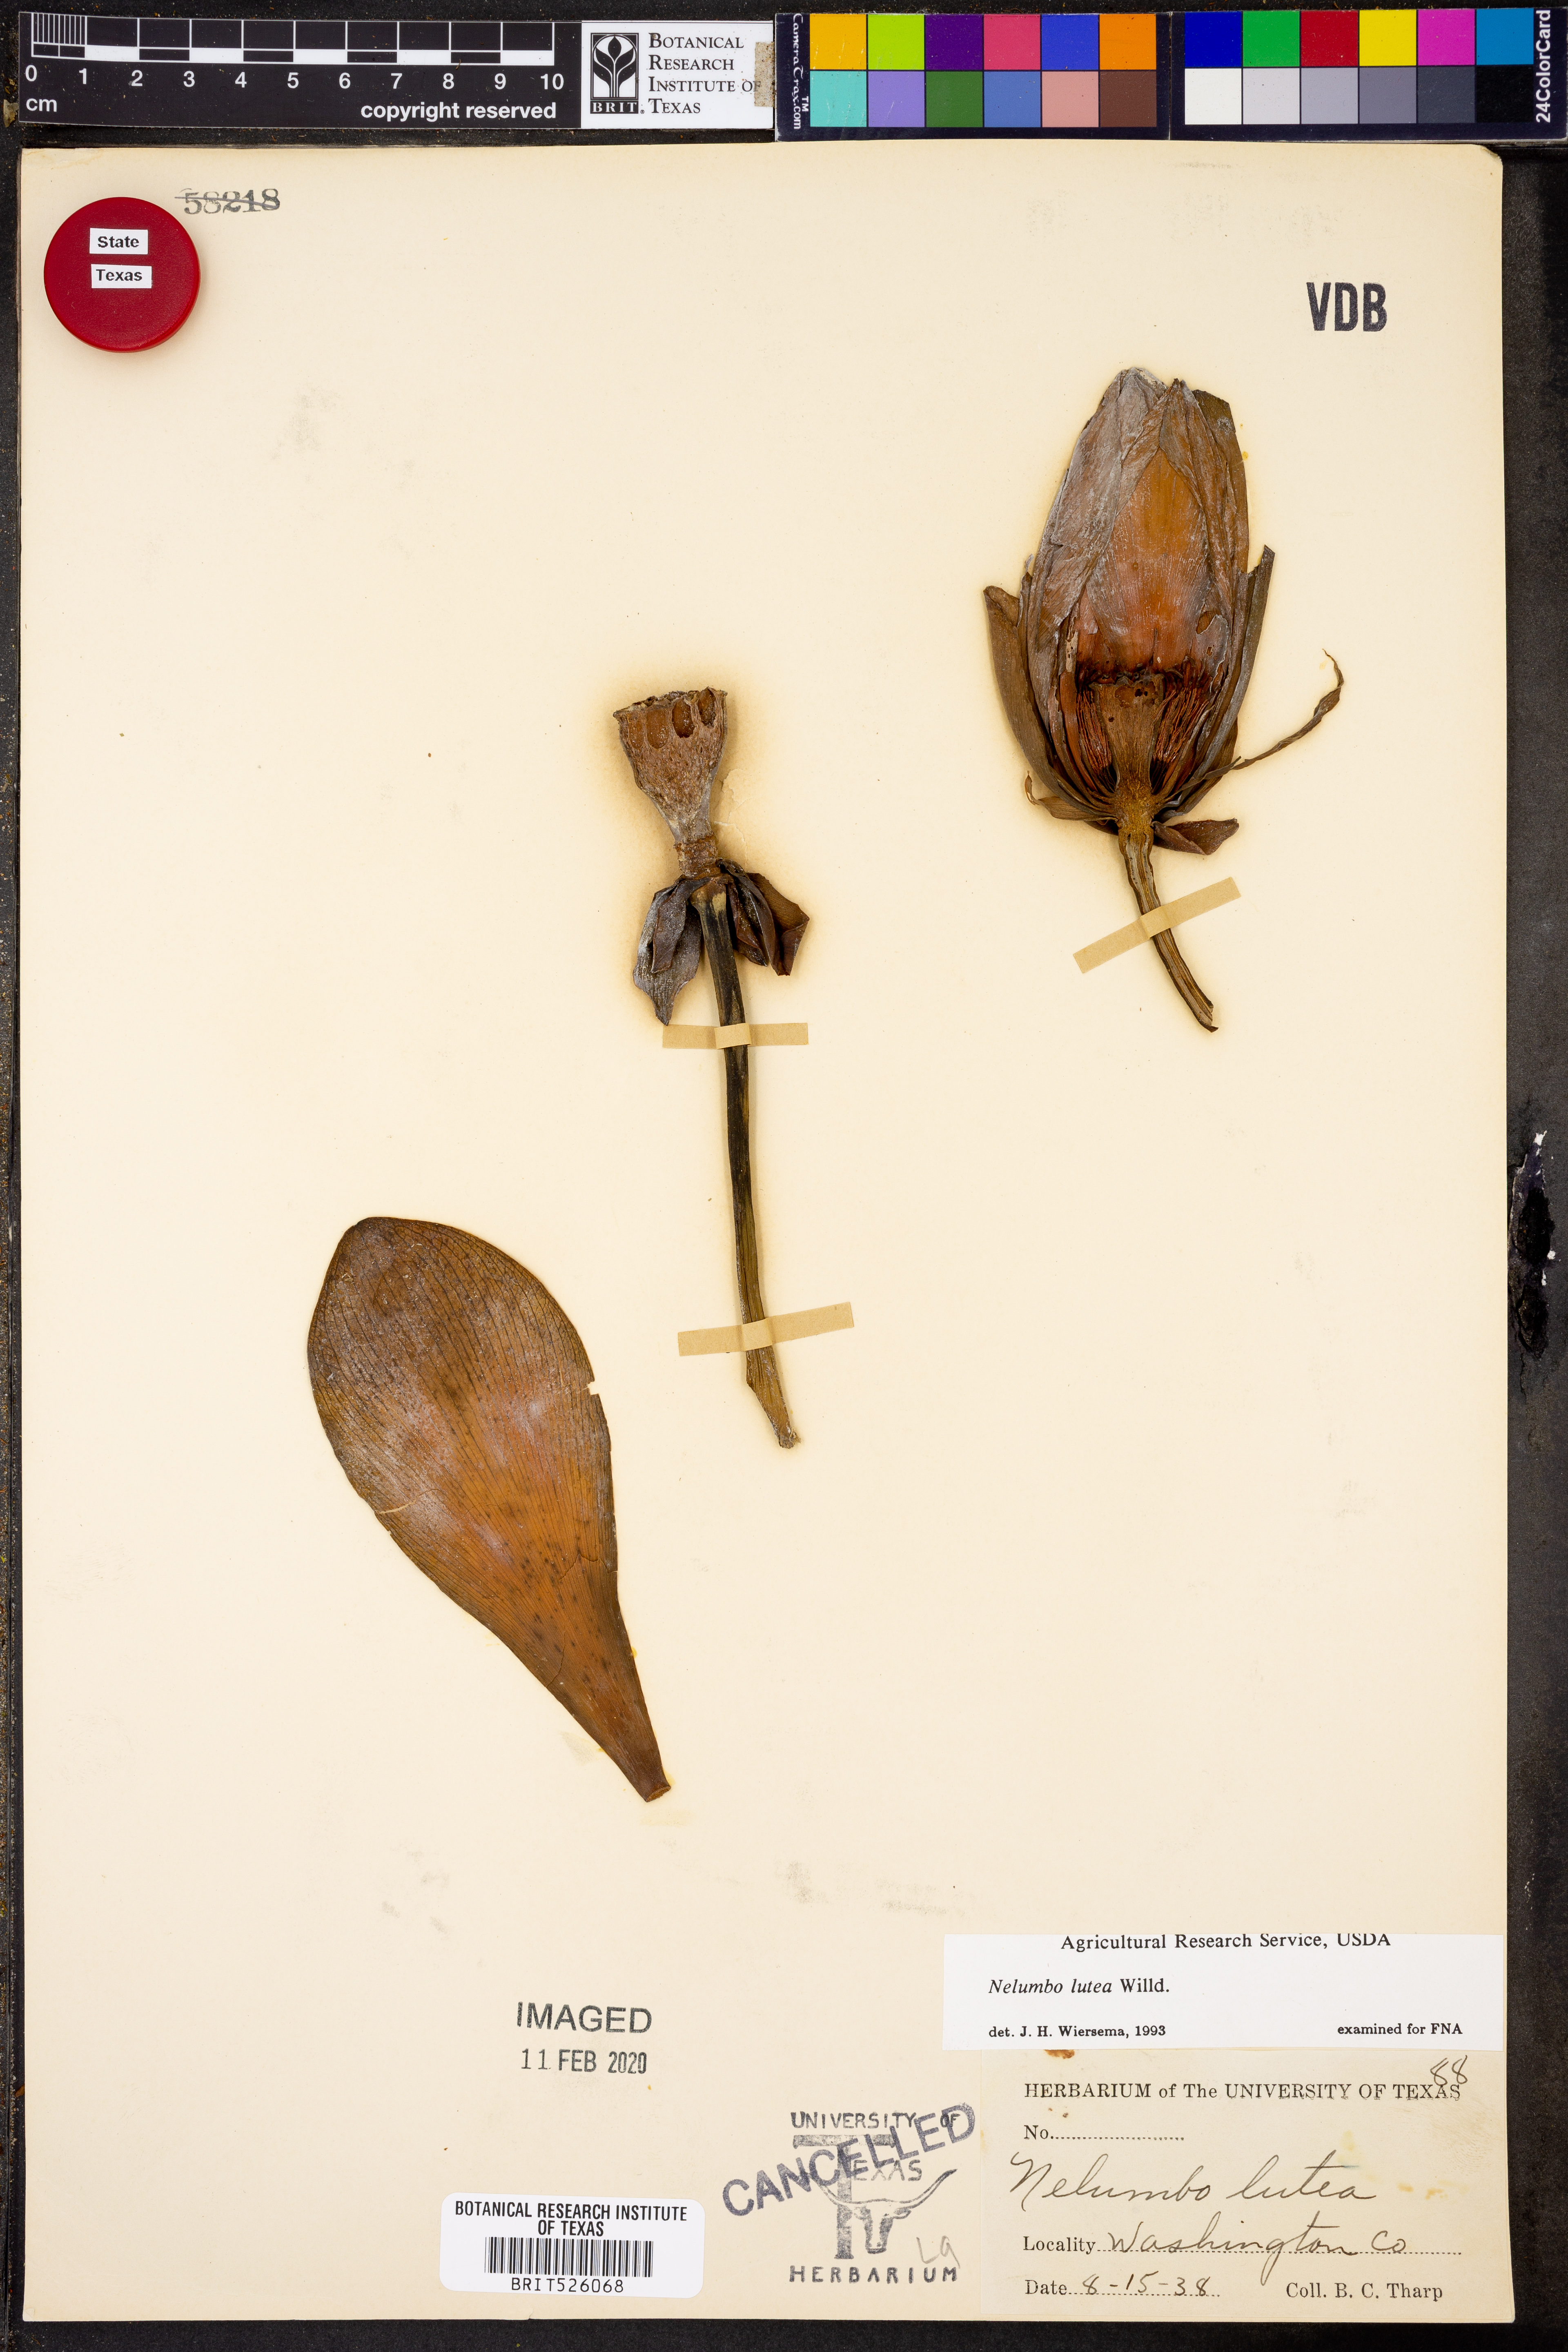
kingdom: Plantae
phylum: Tracheophyta
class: Magnoliopsida
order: Proteales
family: Nelumbonaceae
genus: Nelumbo
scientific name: Nelumbo lutea
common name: American lotus
